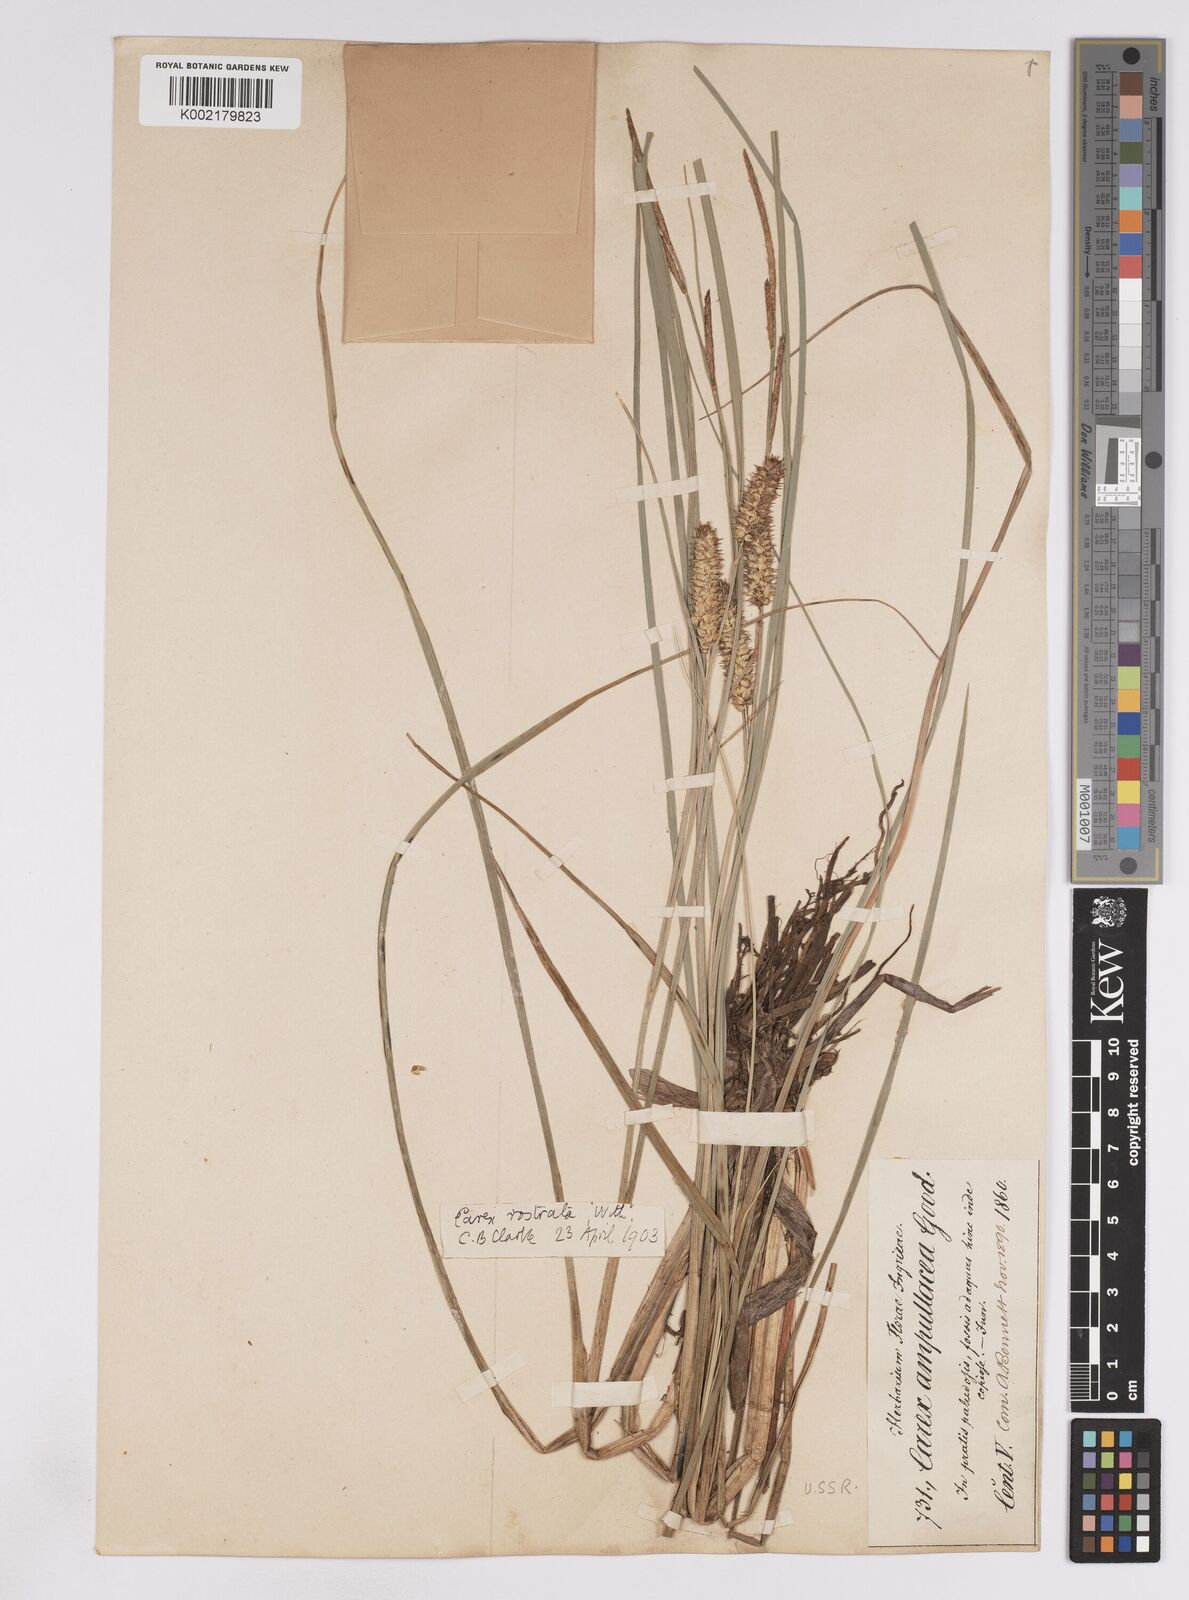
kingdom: Plantae
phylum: Tracheophyta
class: Liliopsida
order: Poales
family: Cyperaceae
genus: Carex
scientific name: Carex rostrata
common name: Bottle sedge
